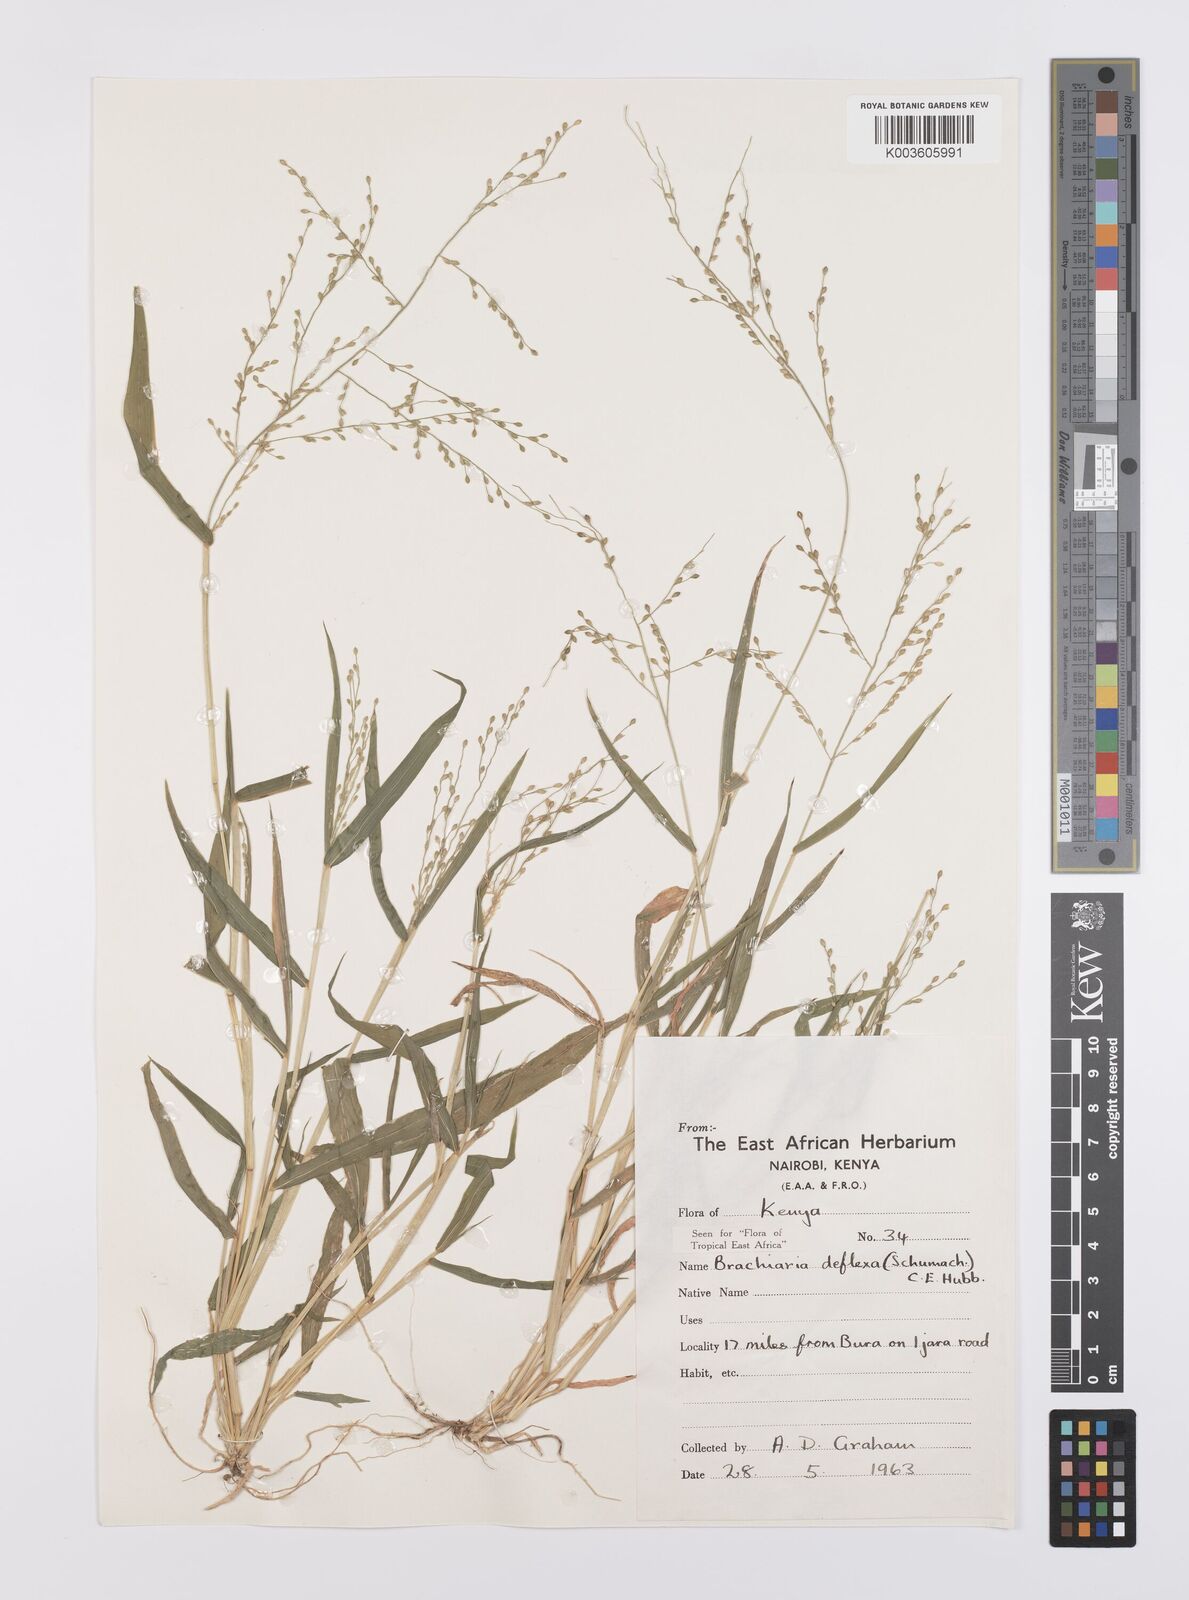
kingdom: Plantae
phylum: Tracheophyta
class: Liliopsida
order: Poales
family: Poaceae
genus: Urochloa
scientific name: Urochloa deflexa
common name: Guinea millet
